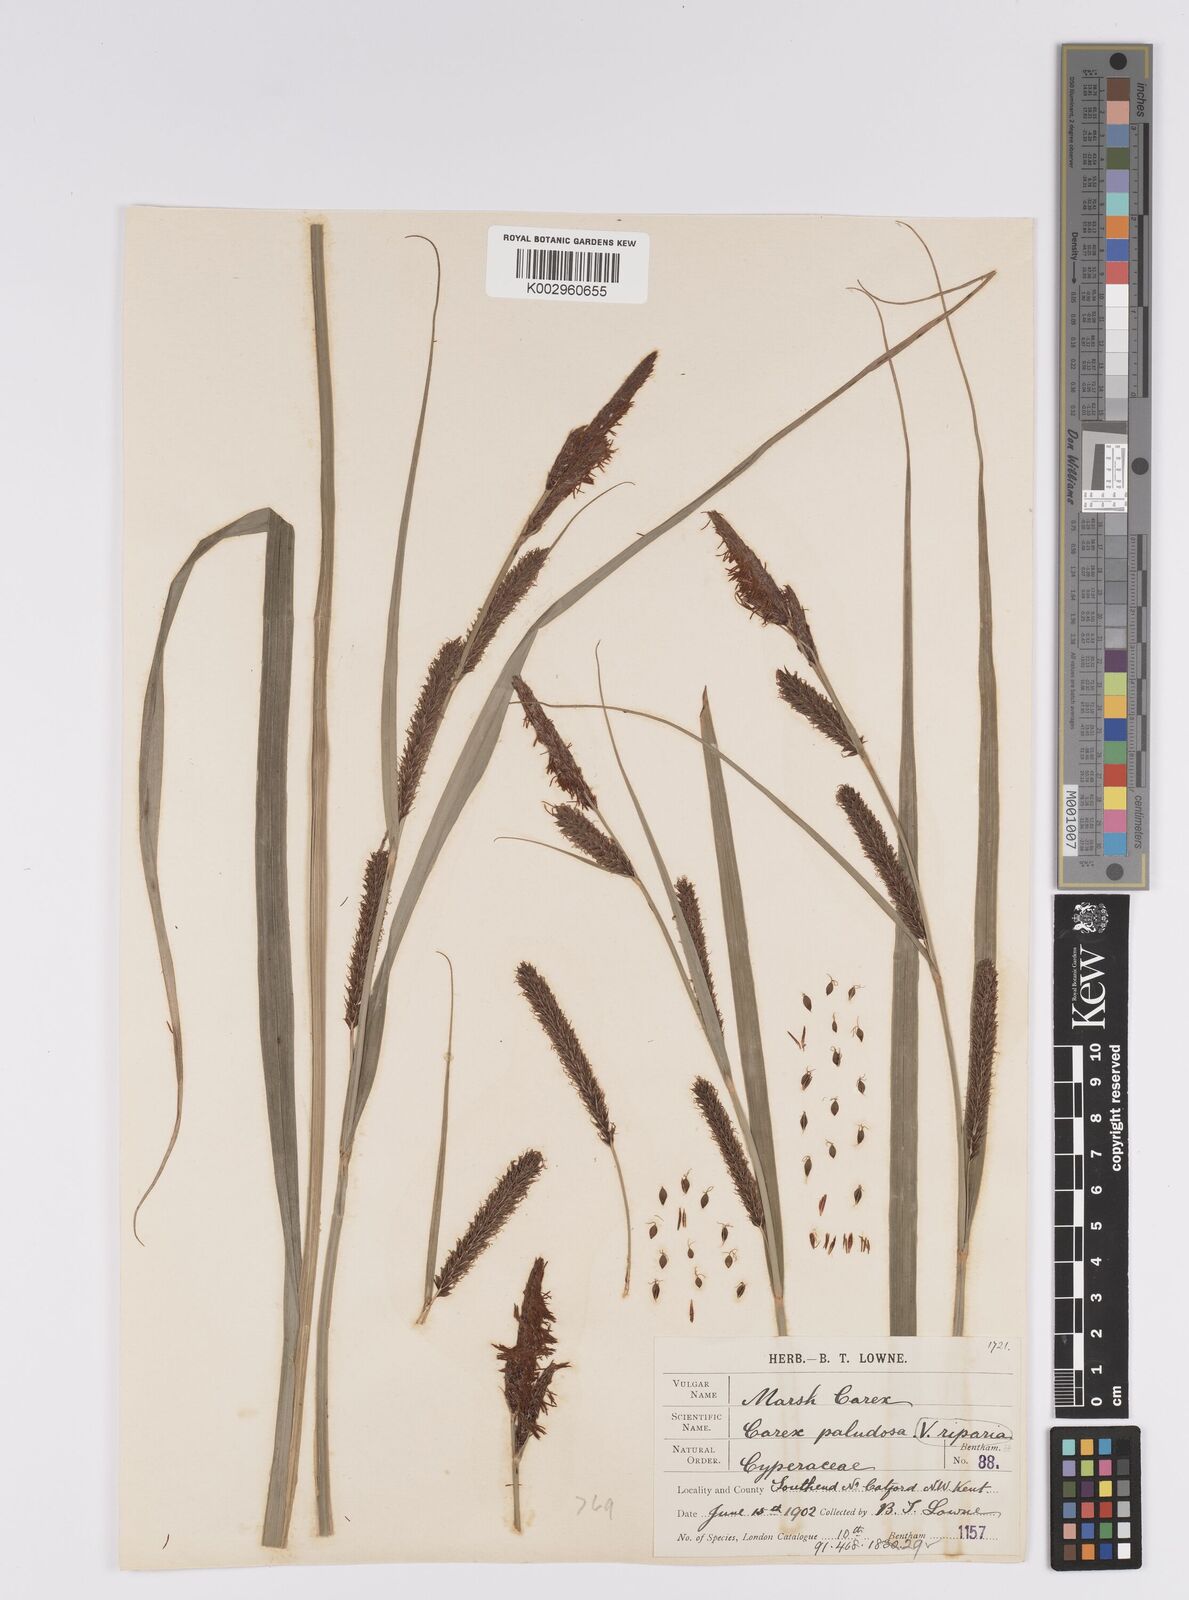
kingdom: Plantae
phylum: Tracheophyta
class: Liliopsida
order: Poales
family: Cyperaceae
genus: Carex
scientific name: Carex acutiformis
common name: Lesser pond-sedge
